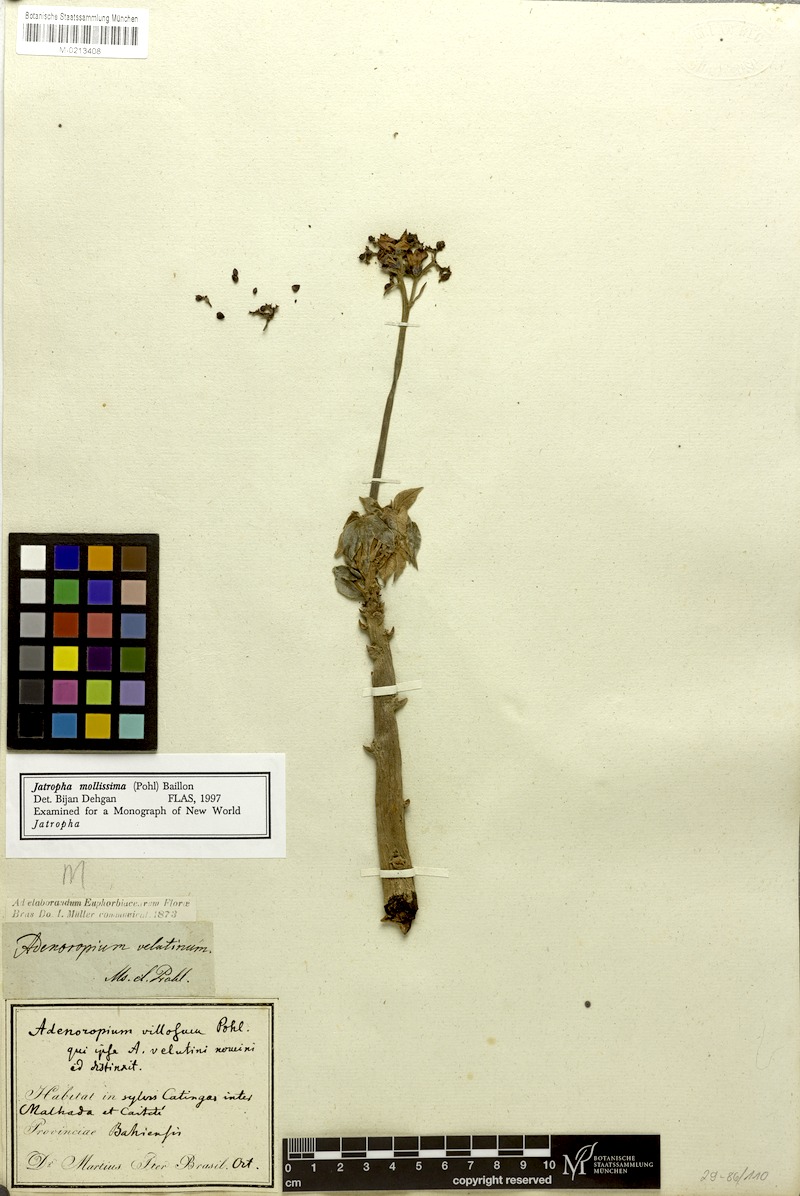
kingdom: Plantae
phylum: Tracheophyta
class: Magnoliopsida
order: Malpighiales
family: Euphorbiaceae
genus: Jatropha
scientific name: Jatropha mollissima
